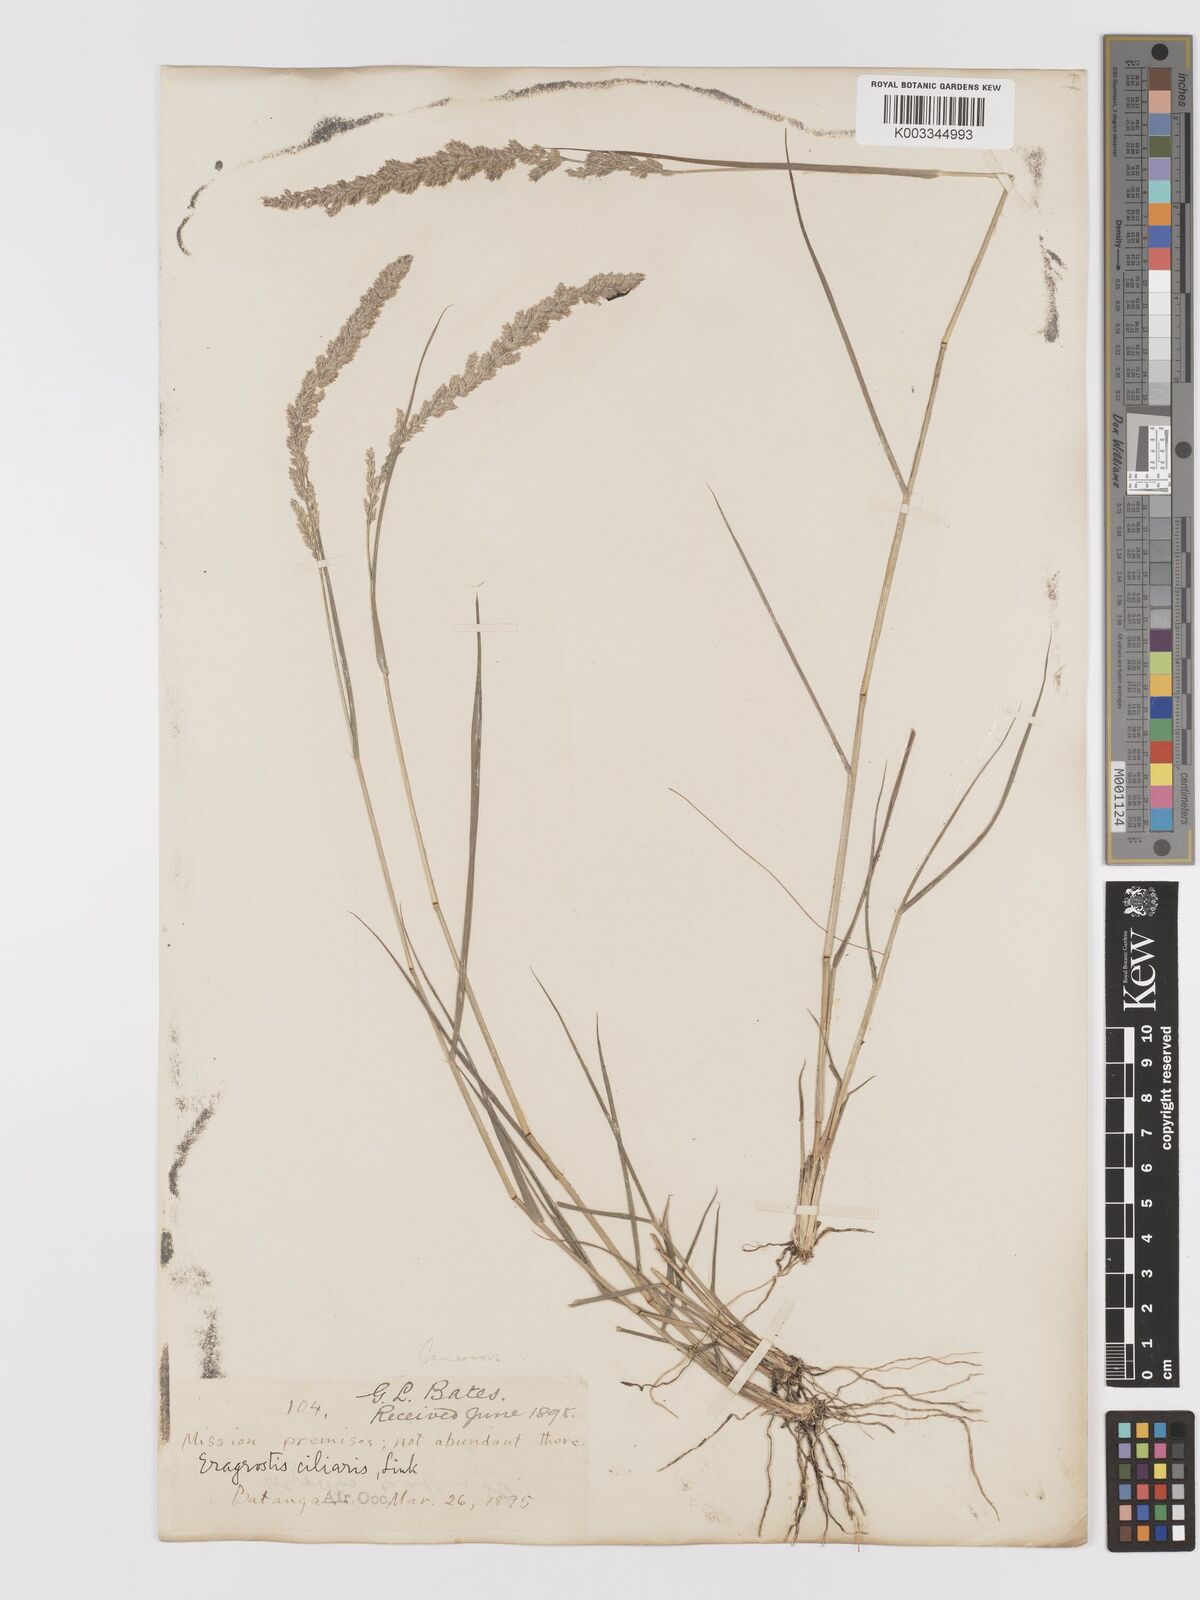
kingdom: Plantae
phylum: Tracheophyta
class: Liliopsida
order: Poales
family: Poaceae
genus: Eragrostis
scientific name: Eragrostis ciliaris
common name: Gophertail lovegrass
